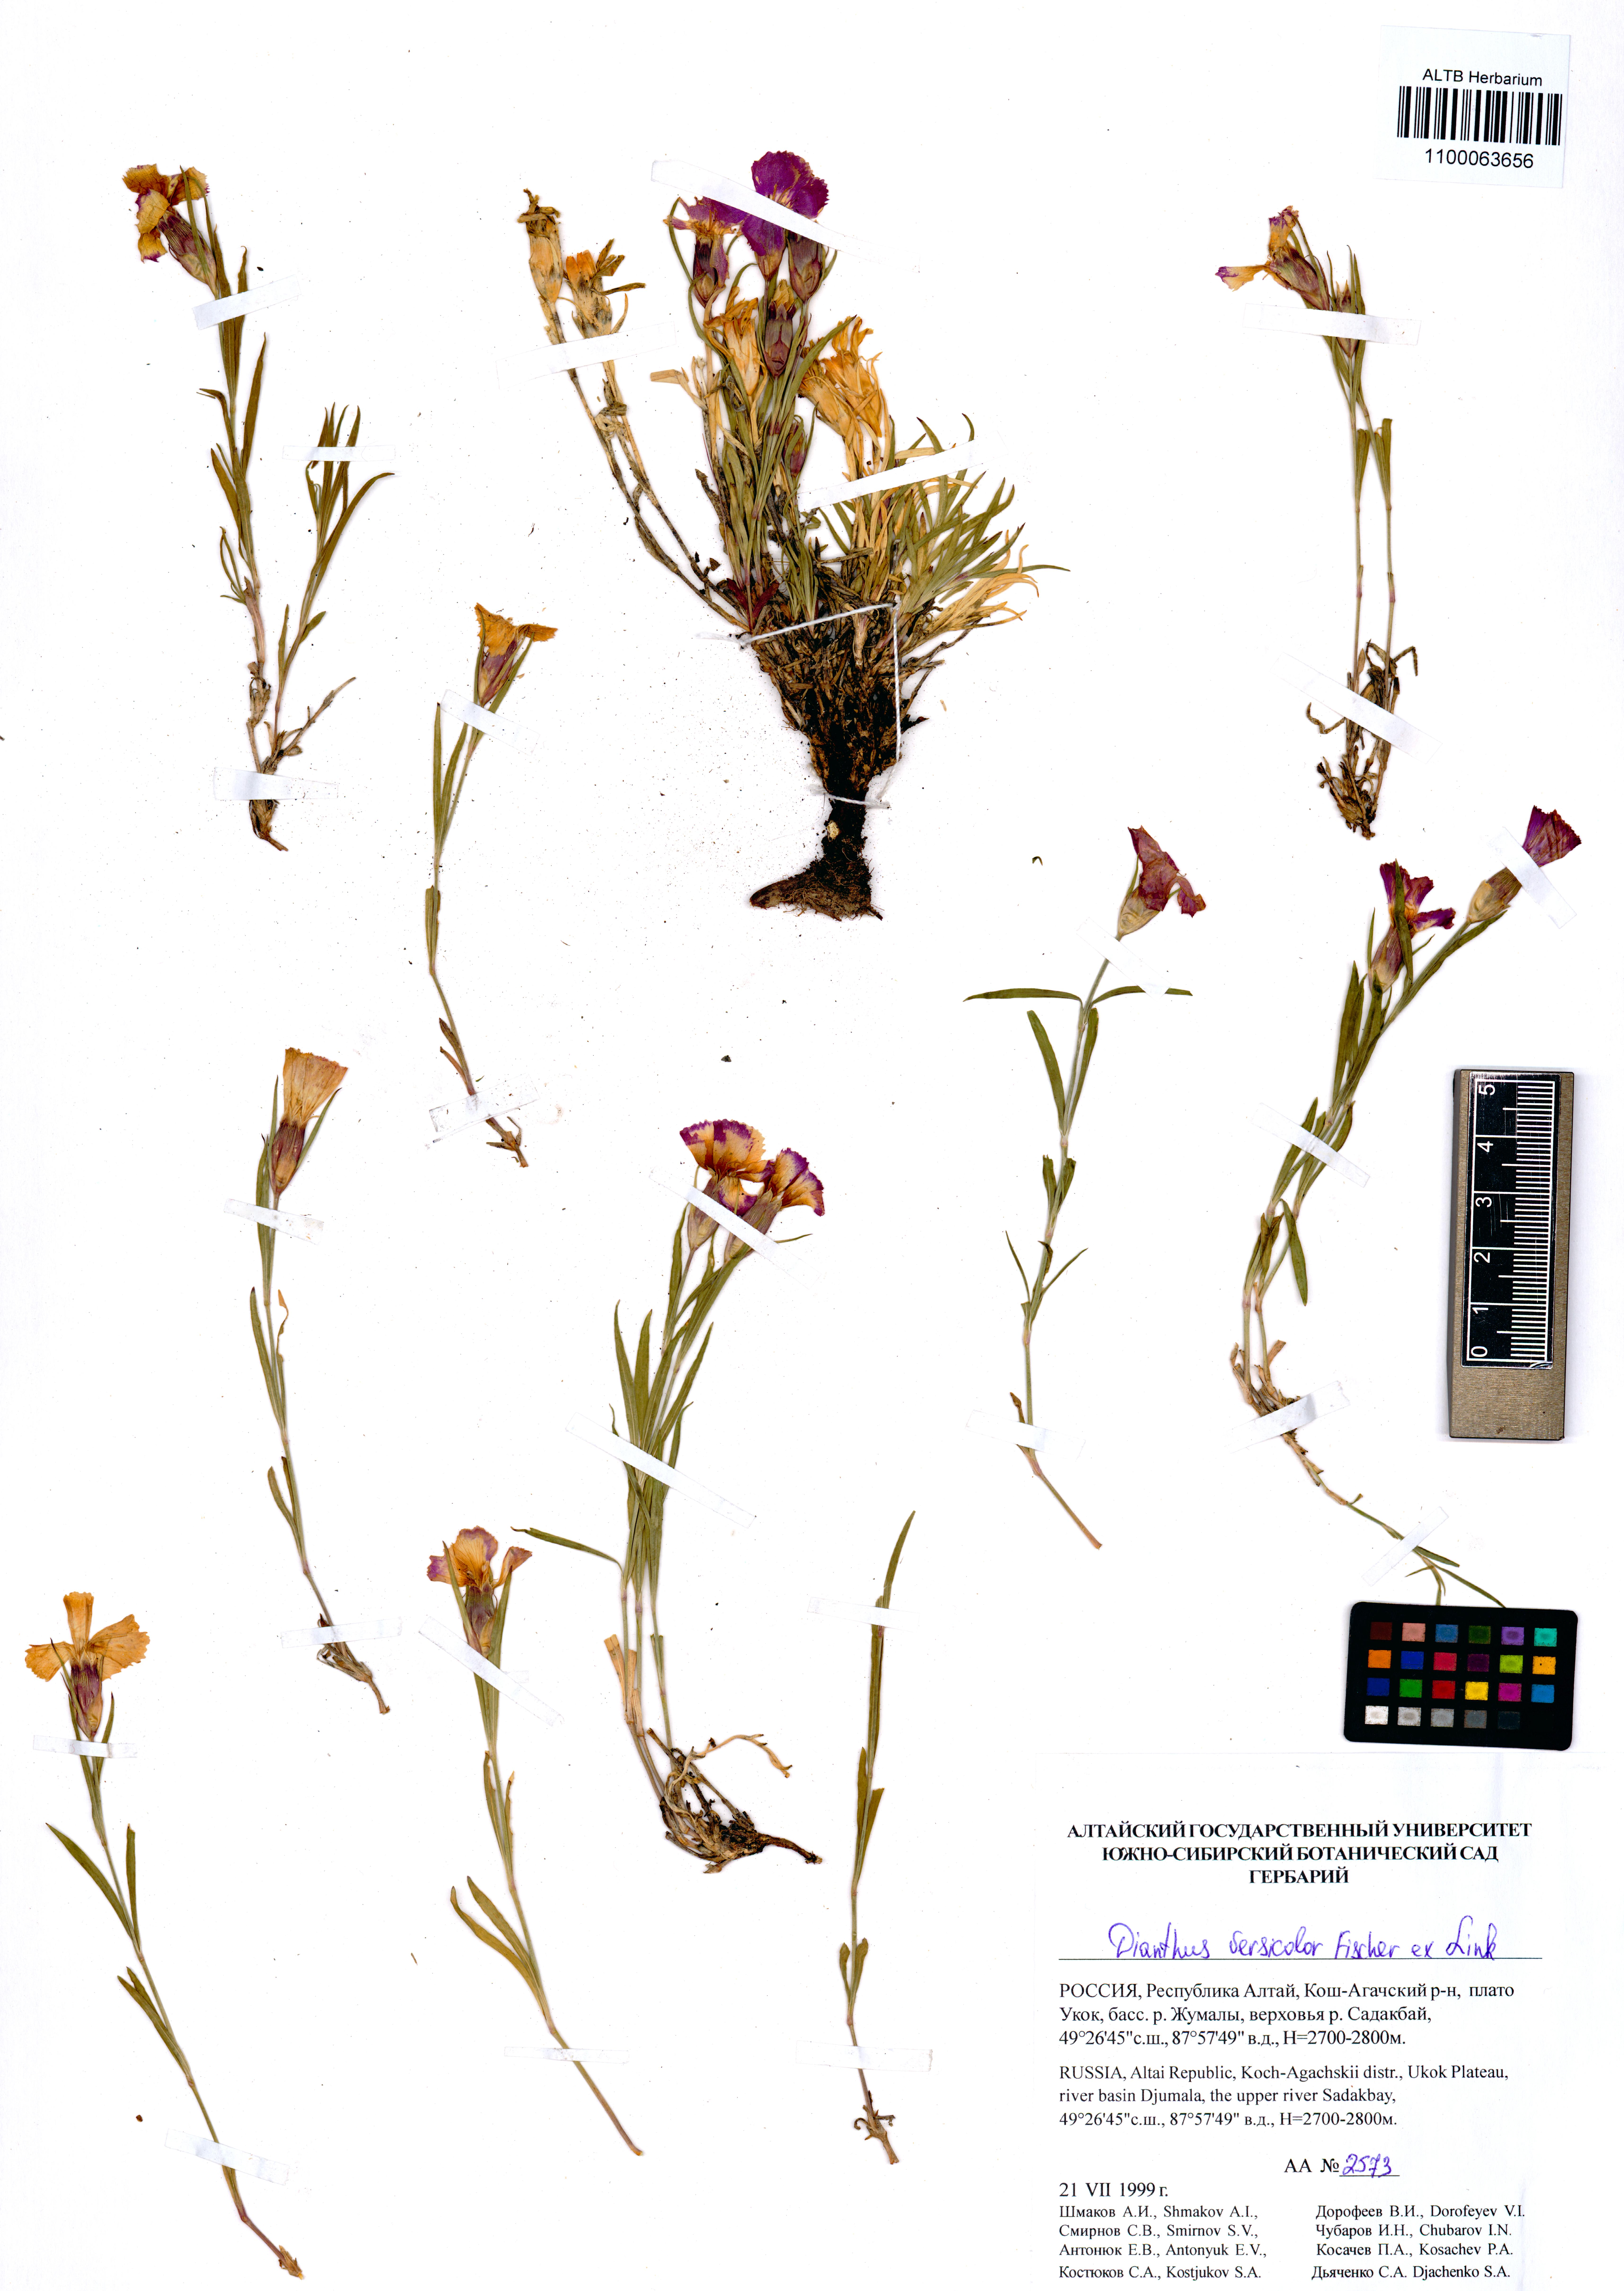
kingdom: Plantae
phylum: Tracheophyta
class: Magnoliopsida
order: Caryophyllales
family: Caryophyllaceae
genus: Dianthus
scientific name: Dianthus chinensis
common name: Rainbow pink
